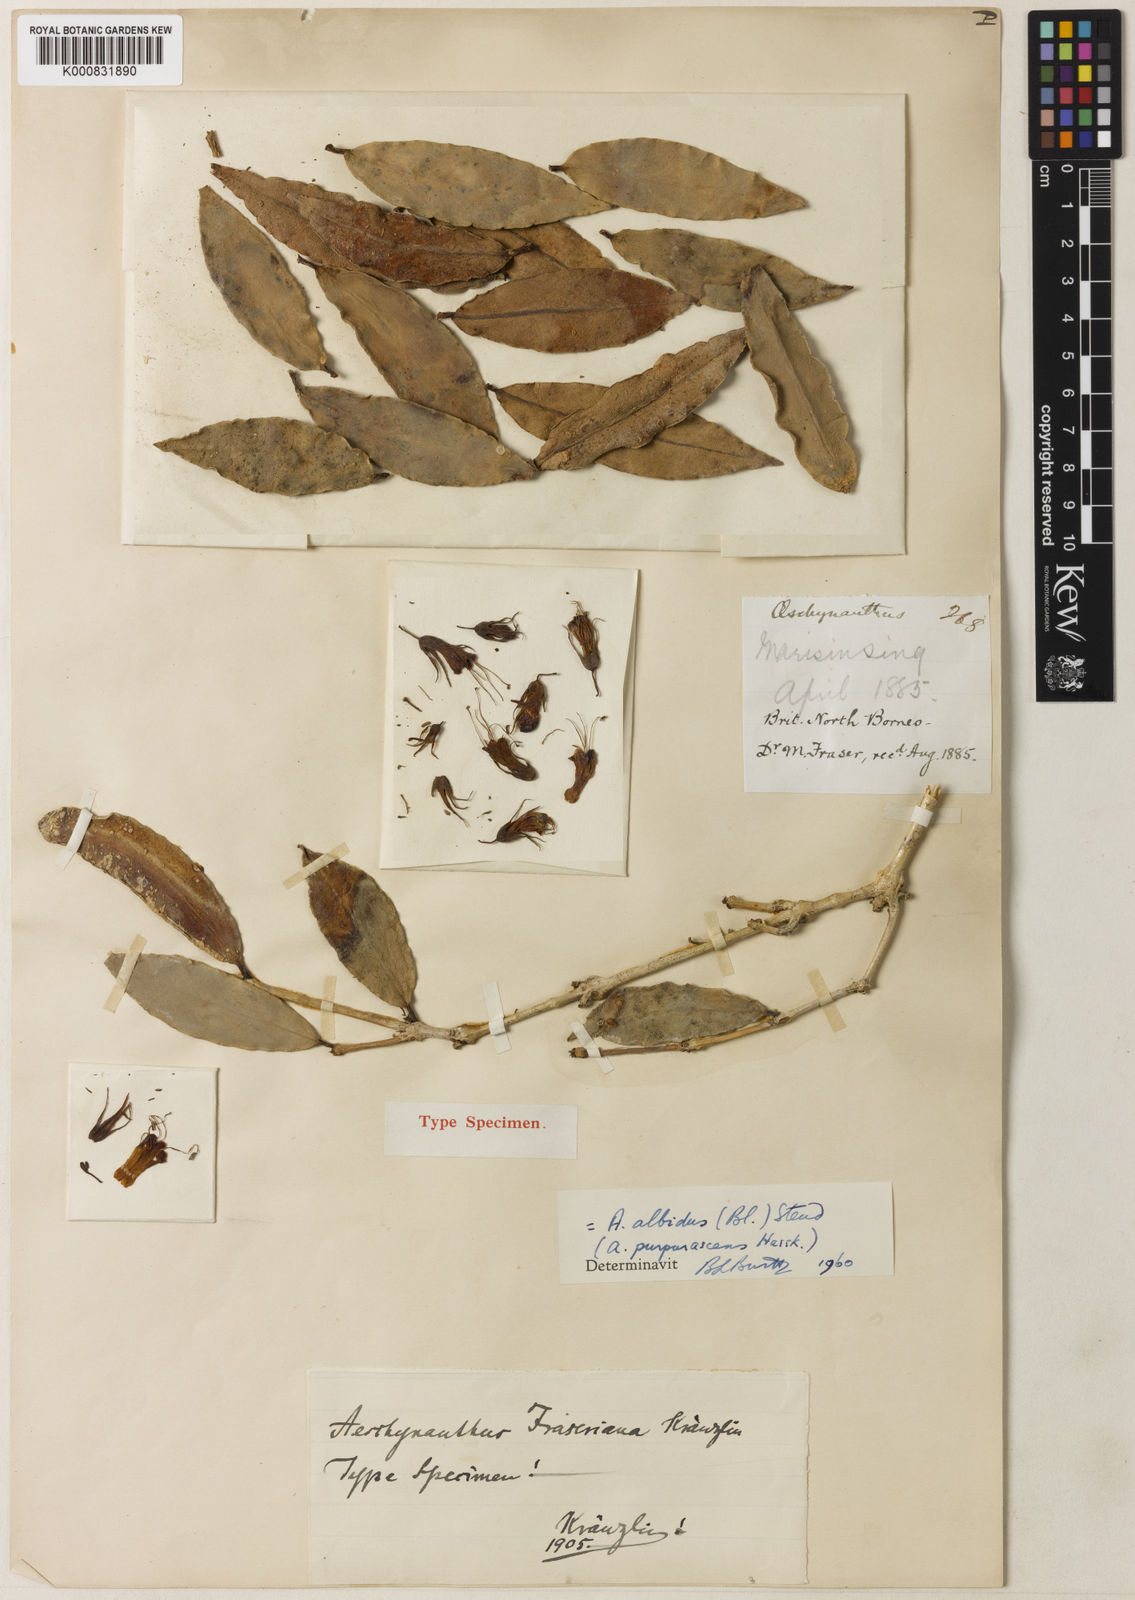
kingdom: Plantae
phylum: Tracheophyta
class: Magnoliopsida
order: Lamiales
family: Gesneriaceae
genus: Aeschynanthus
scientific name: Aeschynanthus albidus
